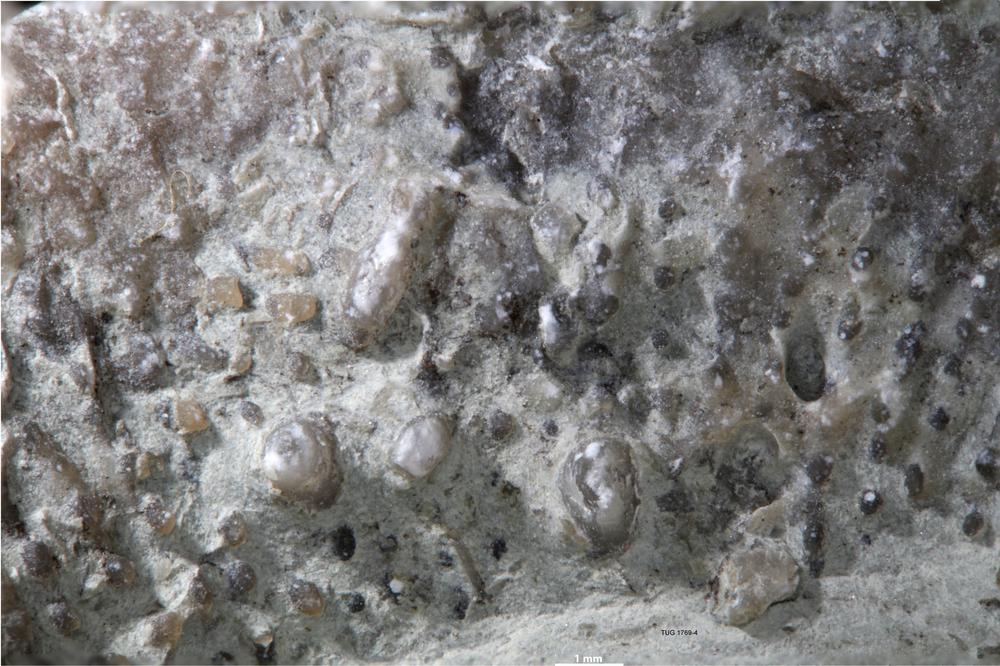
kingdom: Animalia
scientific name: Animalia
